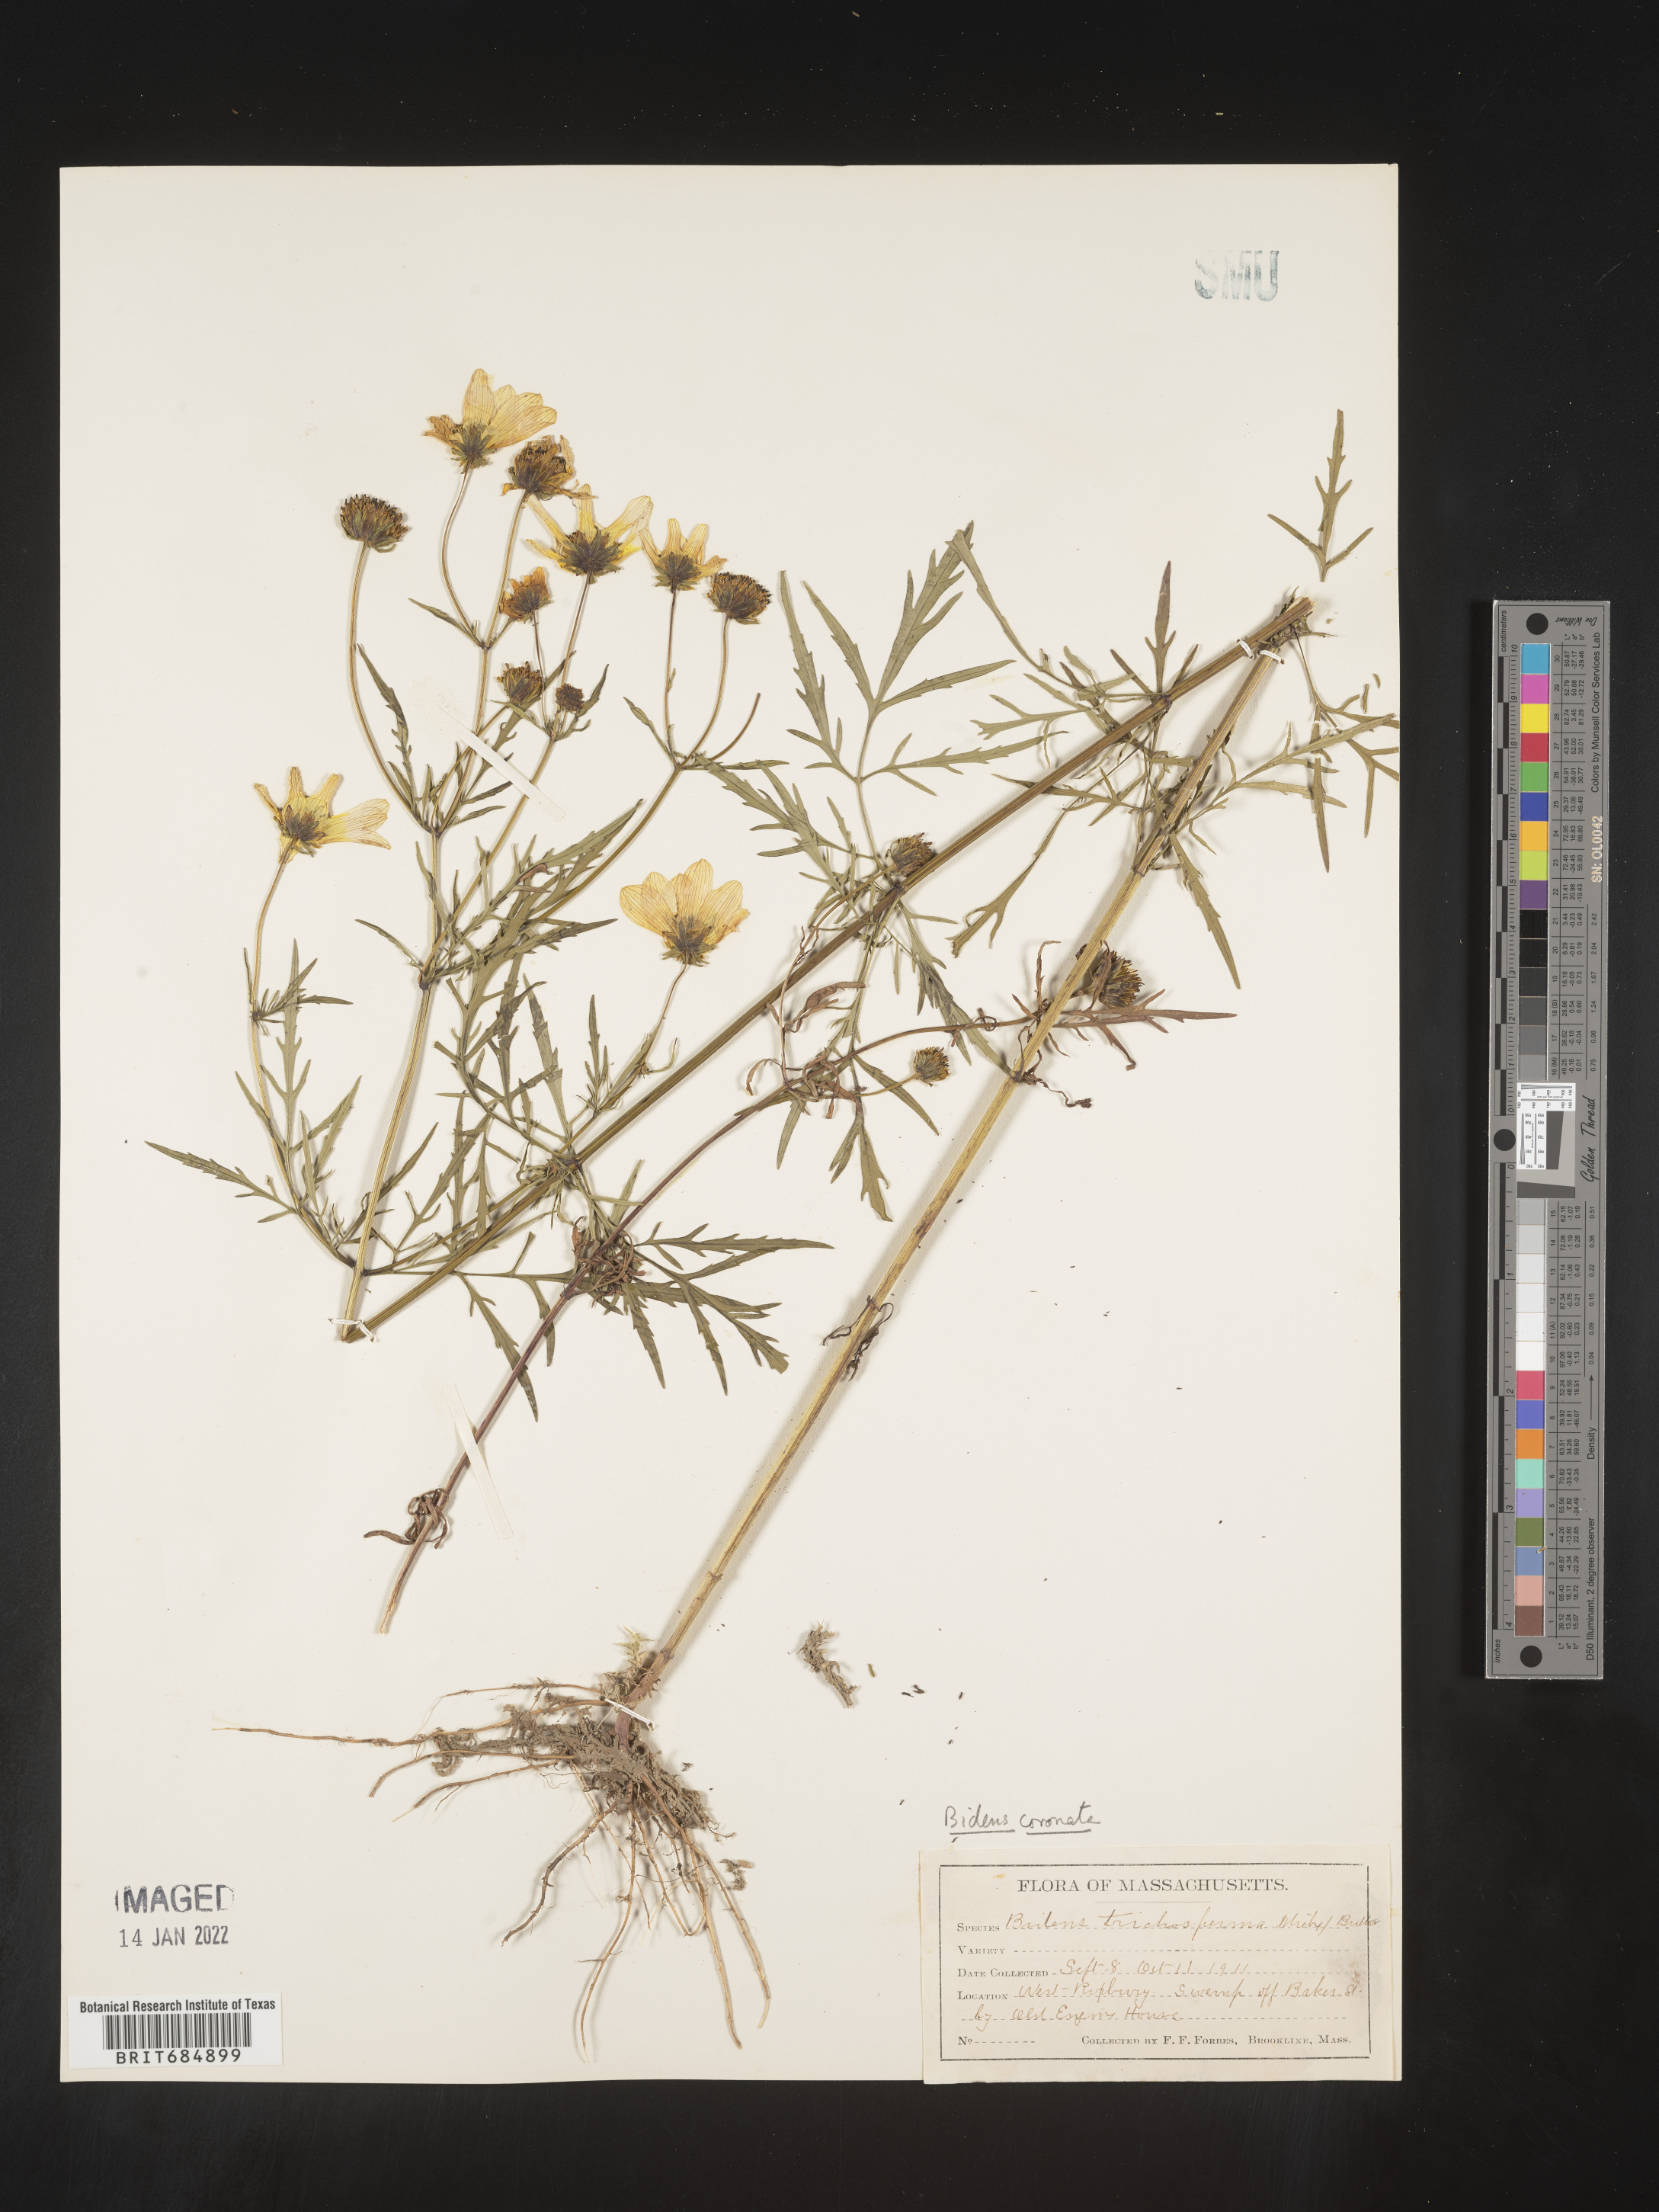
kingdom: Plantae
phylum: Tracheophyta
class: Magnoliopsida
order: Asterales
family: Asteraceae
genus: Bidens
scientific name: Bidens trichosperma
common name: Crowned beggarticks
